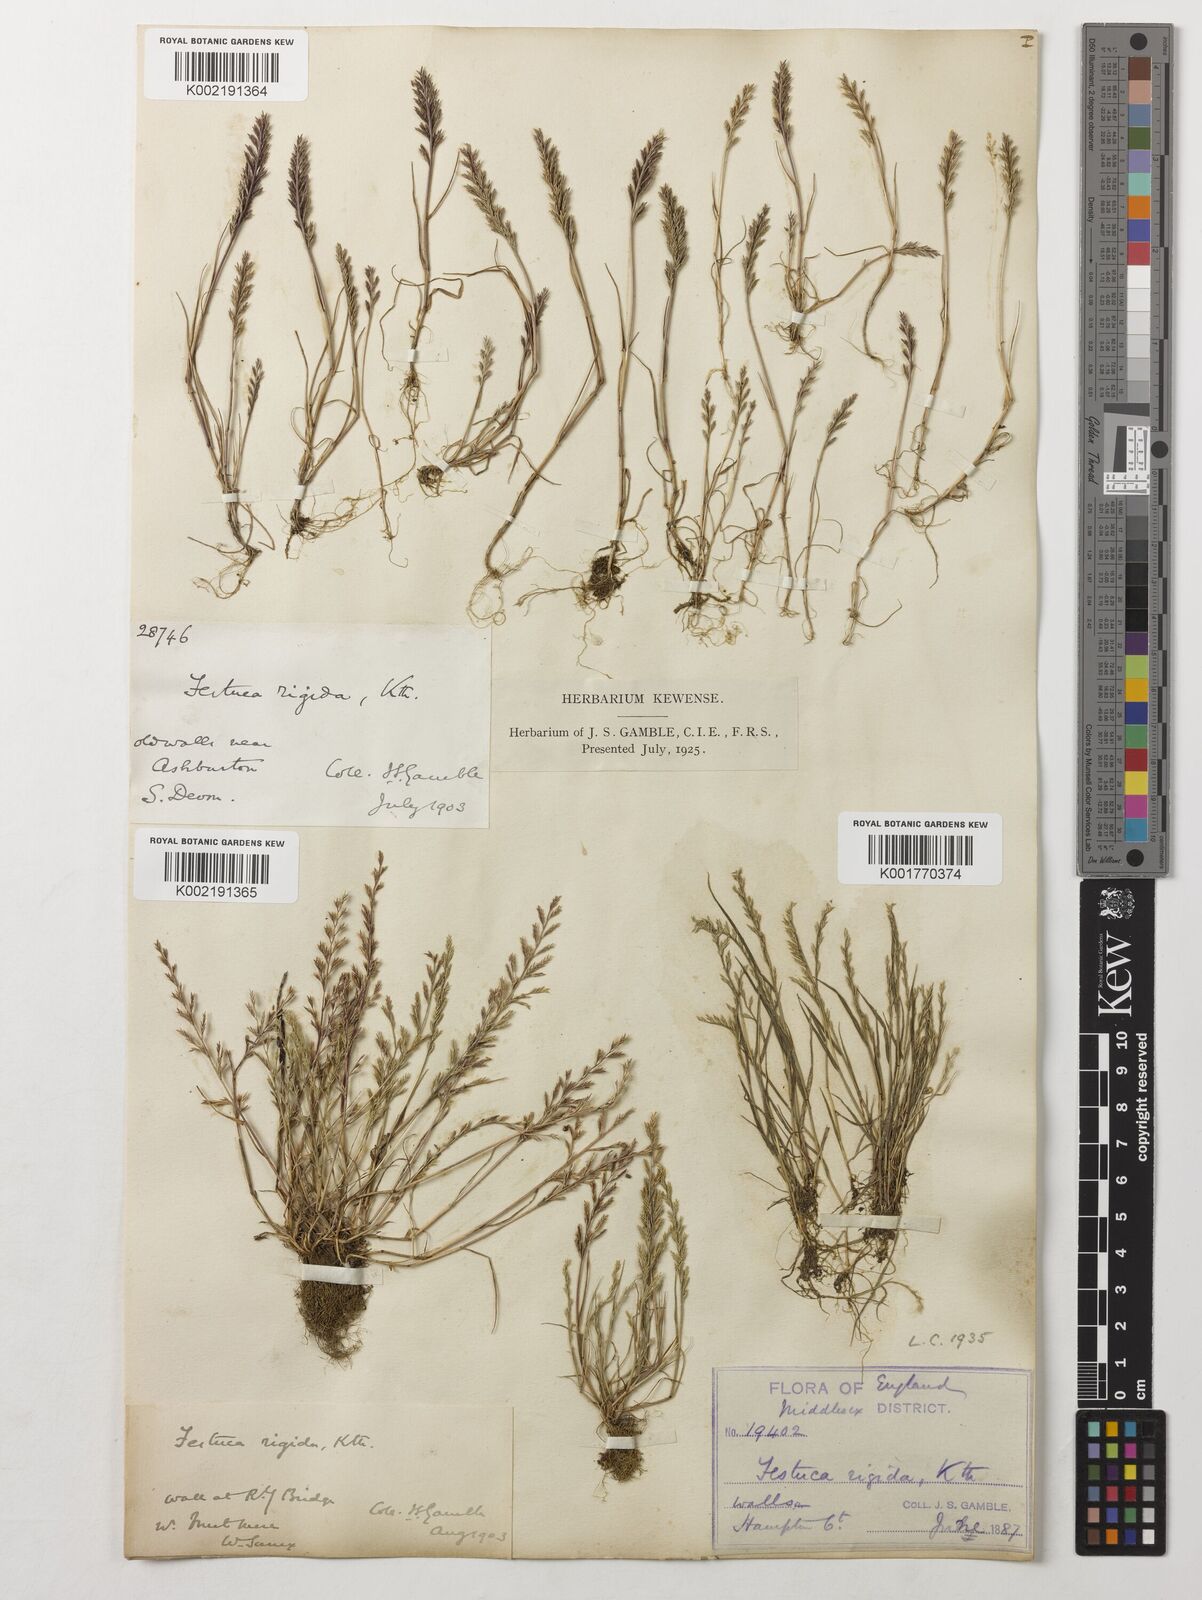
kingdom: Plantae
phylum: Tracheophyta
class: Liliopsida
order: Poales
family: Poaceae
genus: Catapodium
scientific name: Catapodium rigidum
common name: Fern-grass
